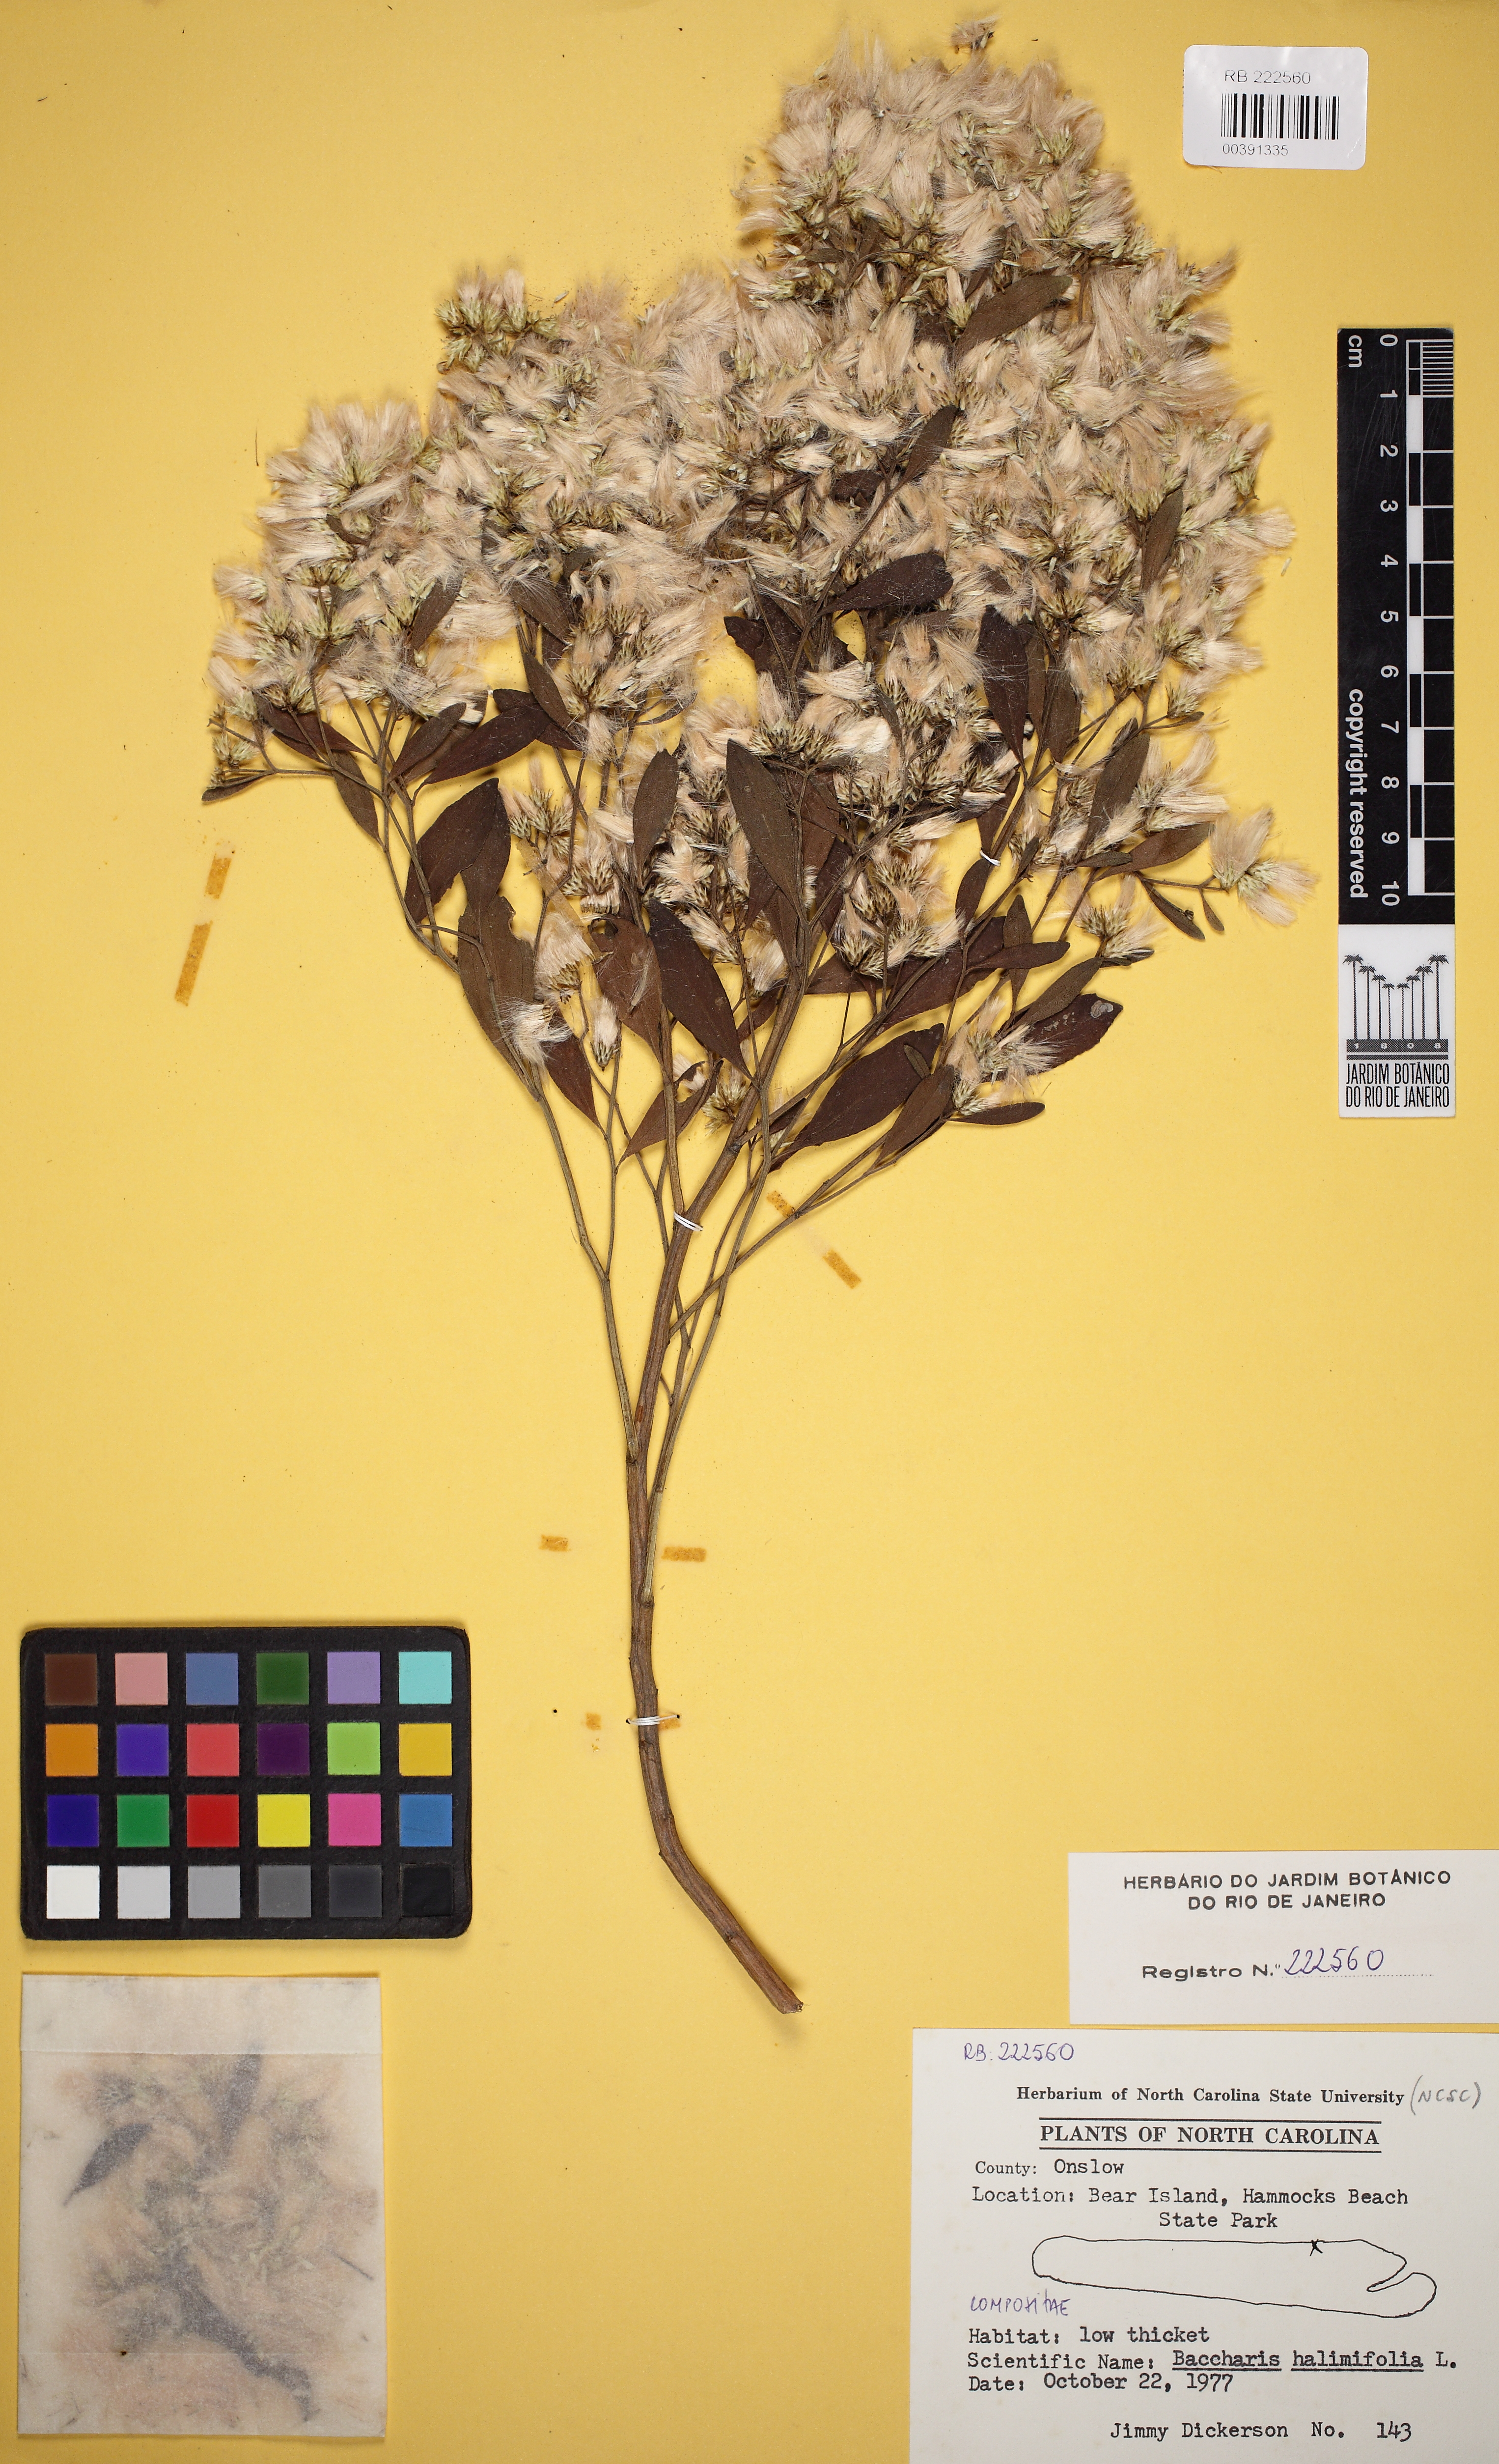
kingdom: Plantae
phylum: Tracheophyta
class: Magnoliopsida
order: Asterales
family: Asteraceae
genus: Baccharis
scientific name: Baccharis halimifolia
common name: Eastern baccharis
